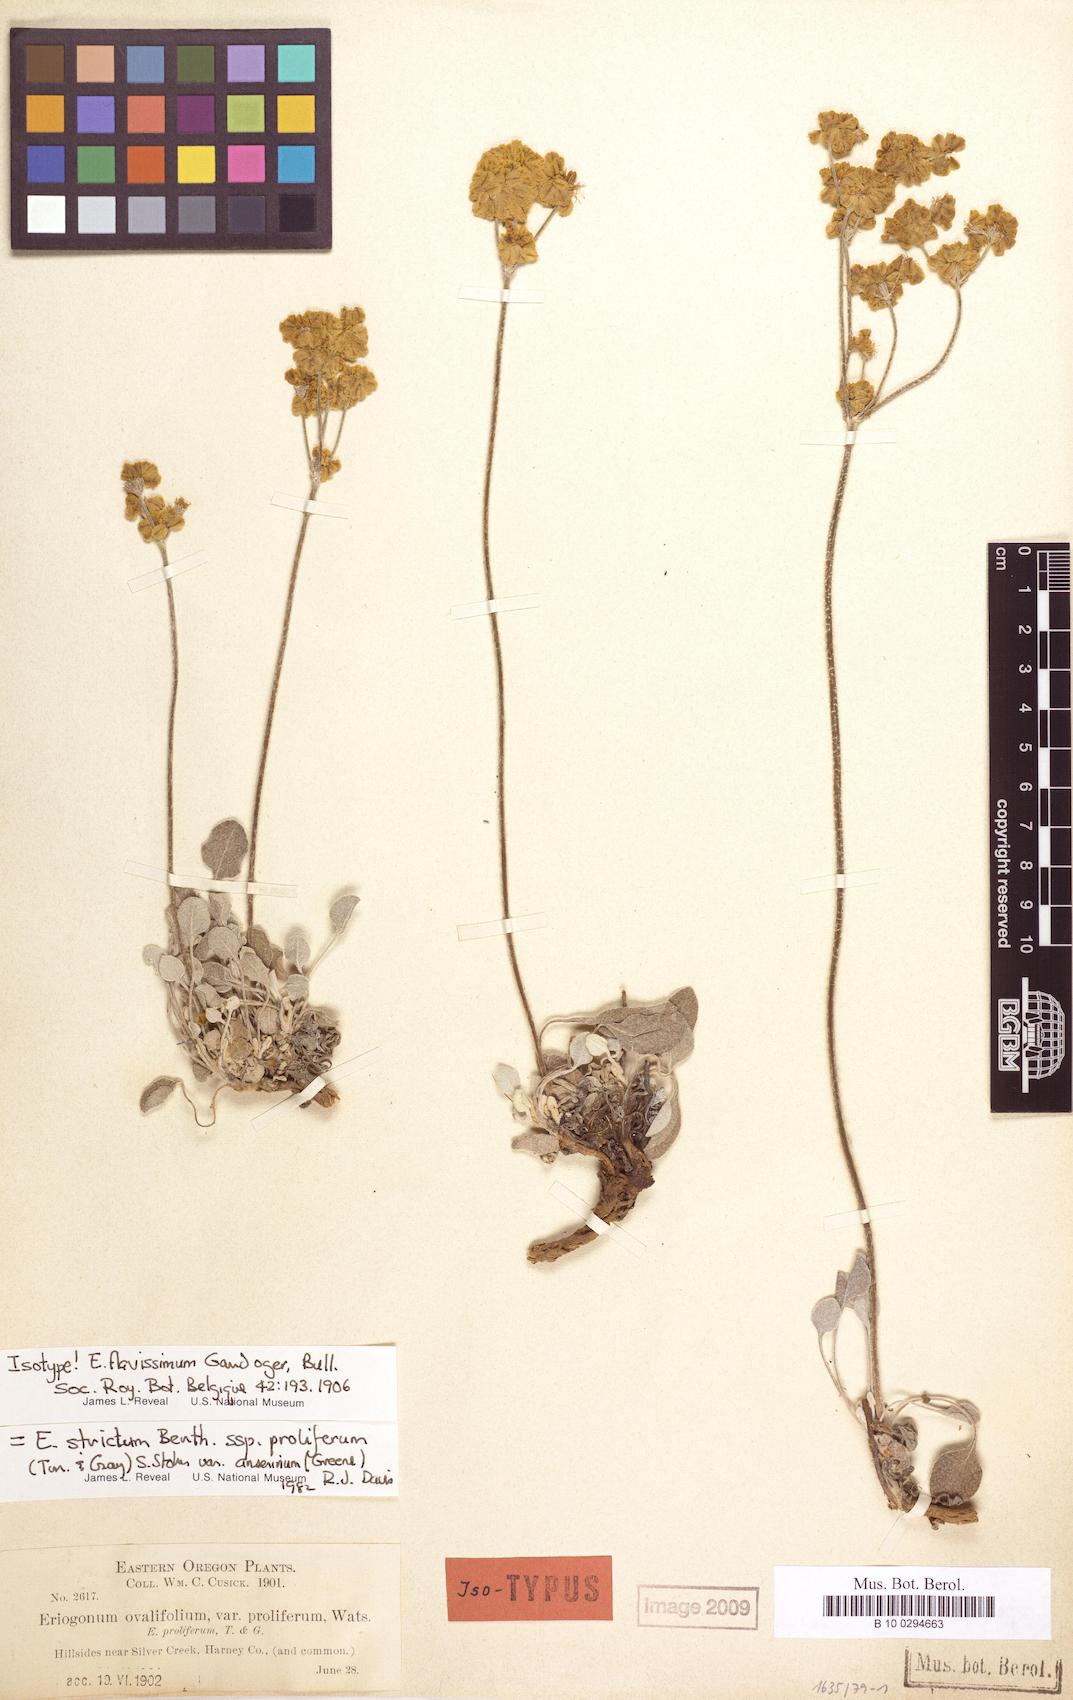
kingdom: Plantae
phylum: Tracheophyta
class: Magnoliopsida
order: Caryophyllales
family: Polygonaceae
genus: Eriogonum
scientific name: Eriogonum strictum
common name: Blue mountain buckwheat
